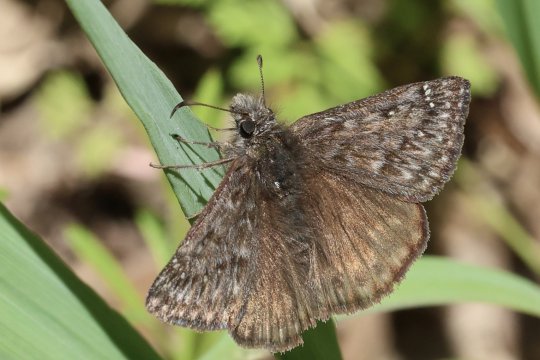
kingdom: Animalia
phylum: Arthropoda
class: Insecta
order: Lepidoptera
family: Hesperiidae
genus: Erynnis
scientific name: Erynnis propertius
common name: Propertius Duskywing
